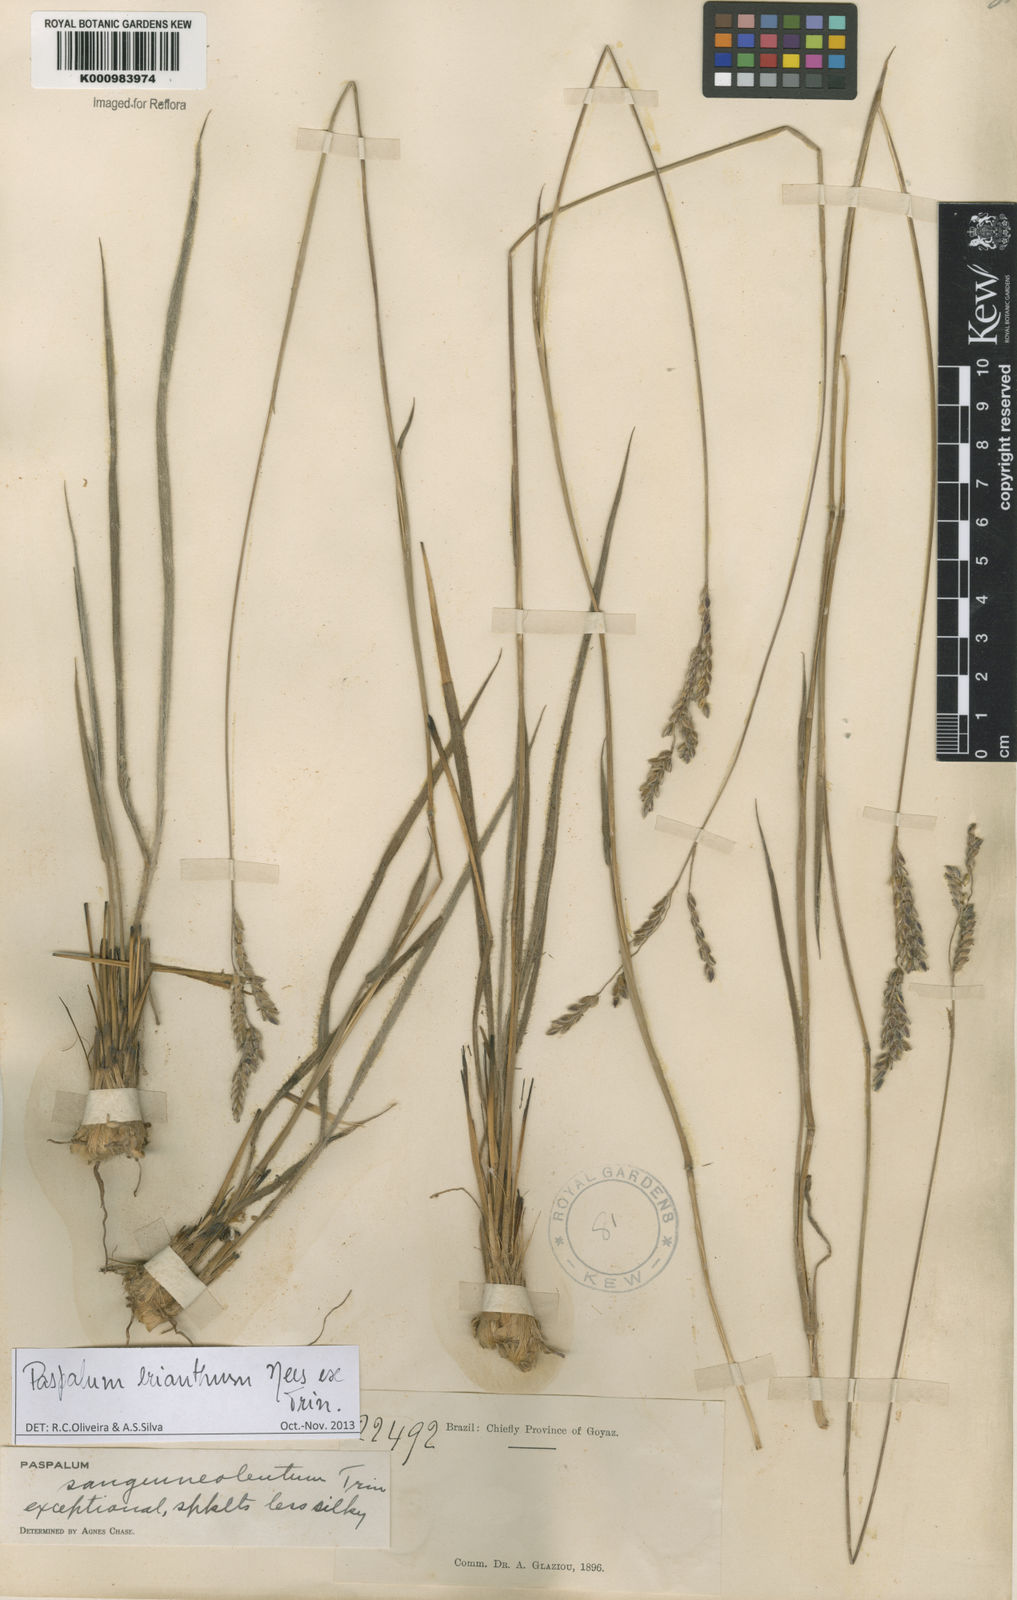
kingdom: Plantae
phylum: Tracheophyta
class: Liliopsida
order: Poales
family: Poaceae
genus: Paspalum
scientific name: Paspalum erianthum
